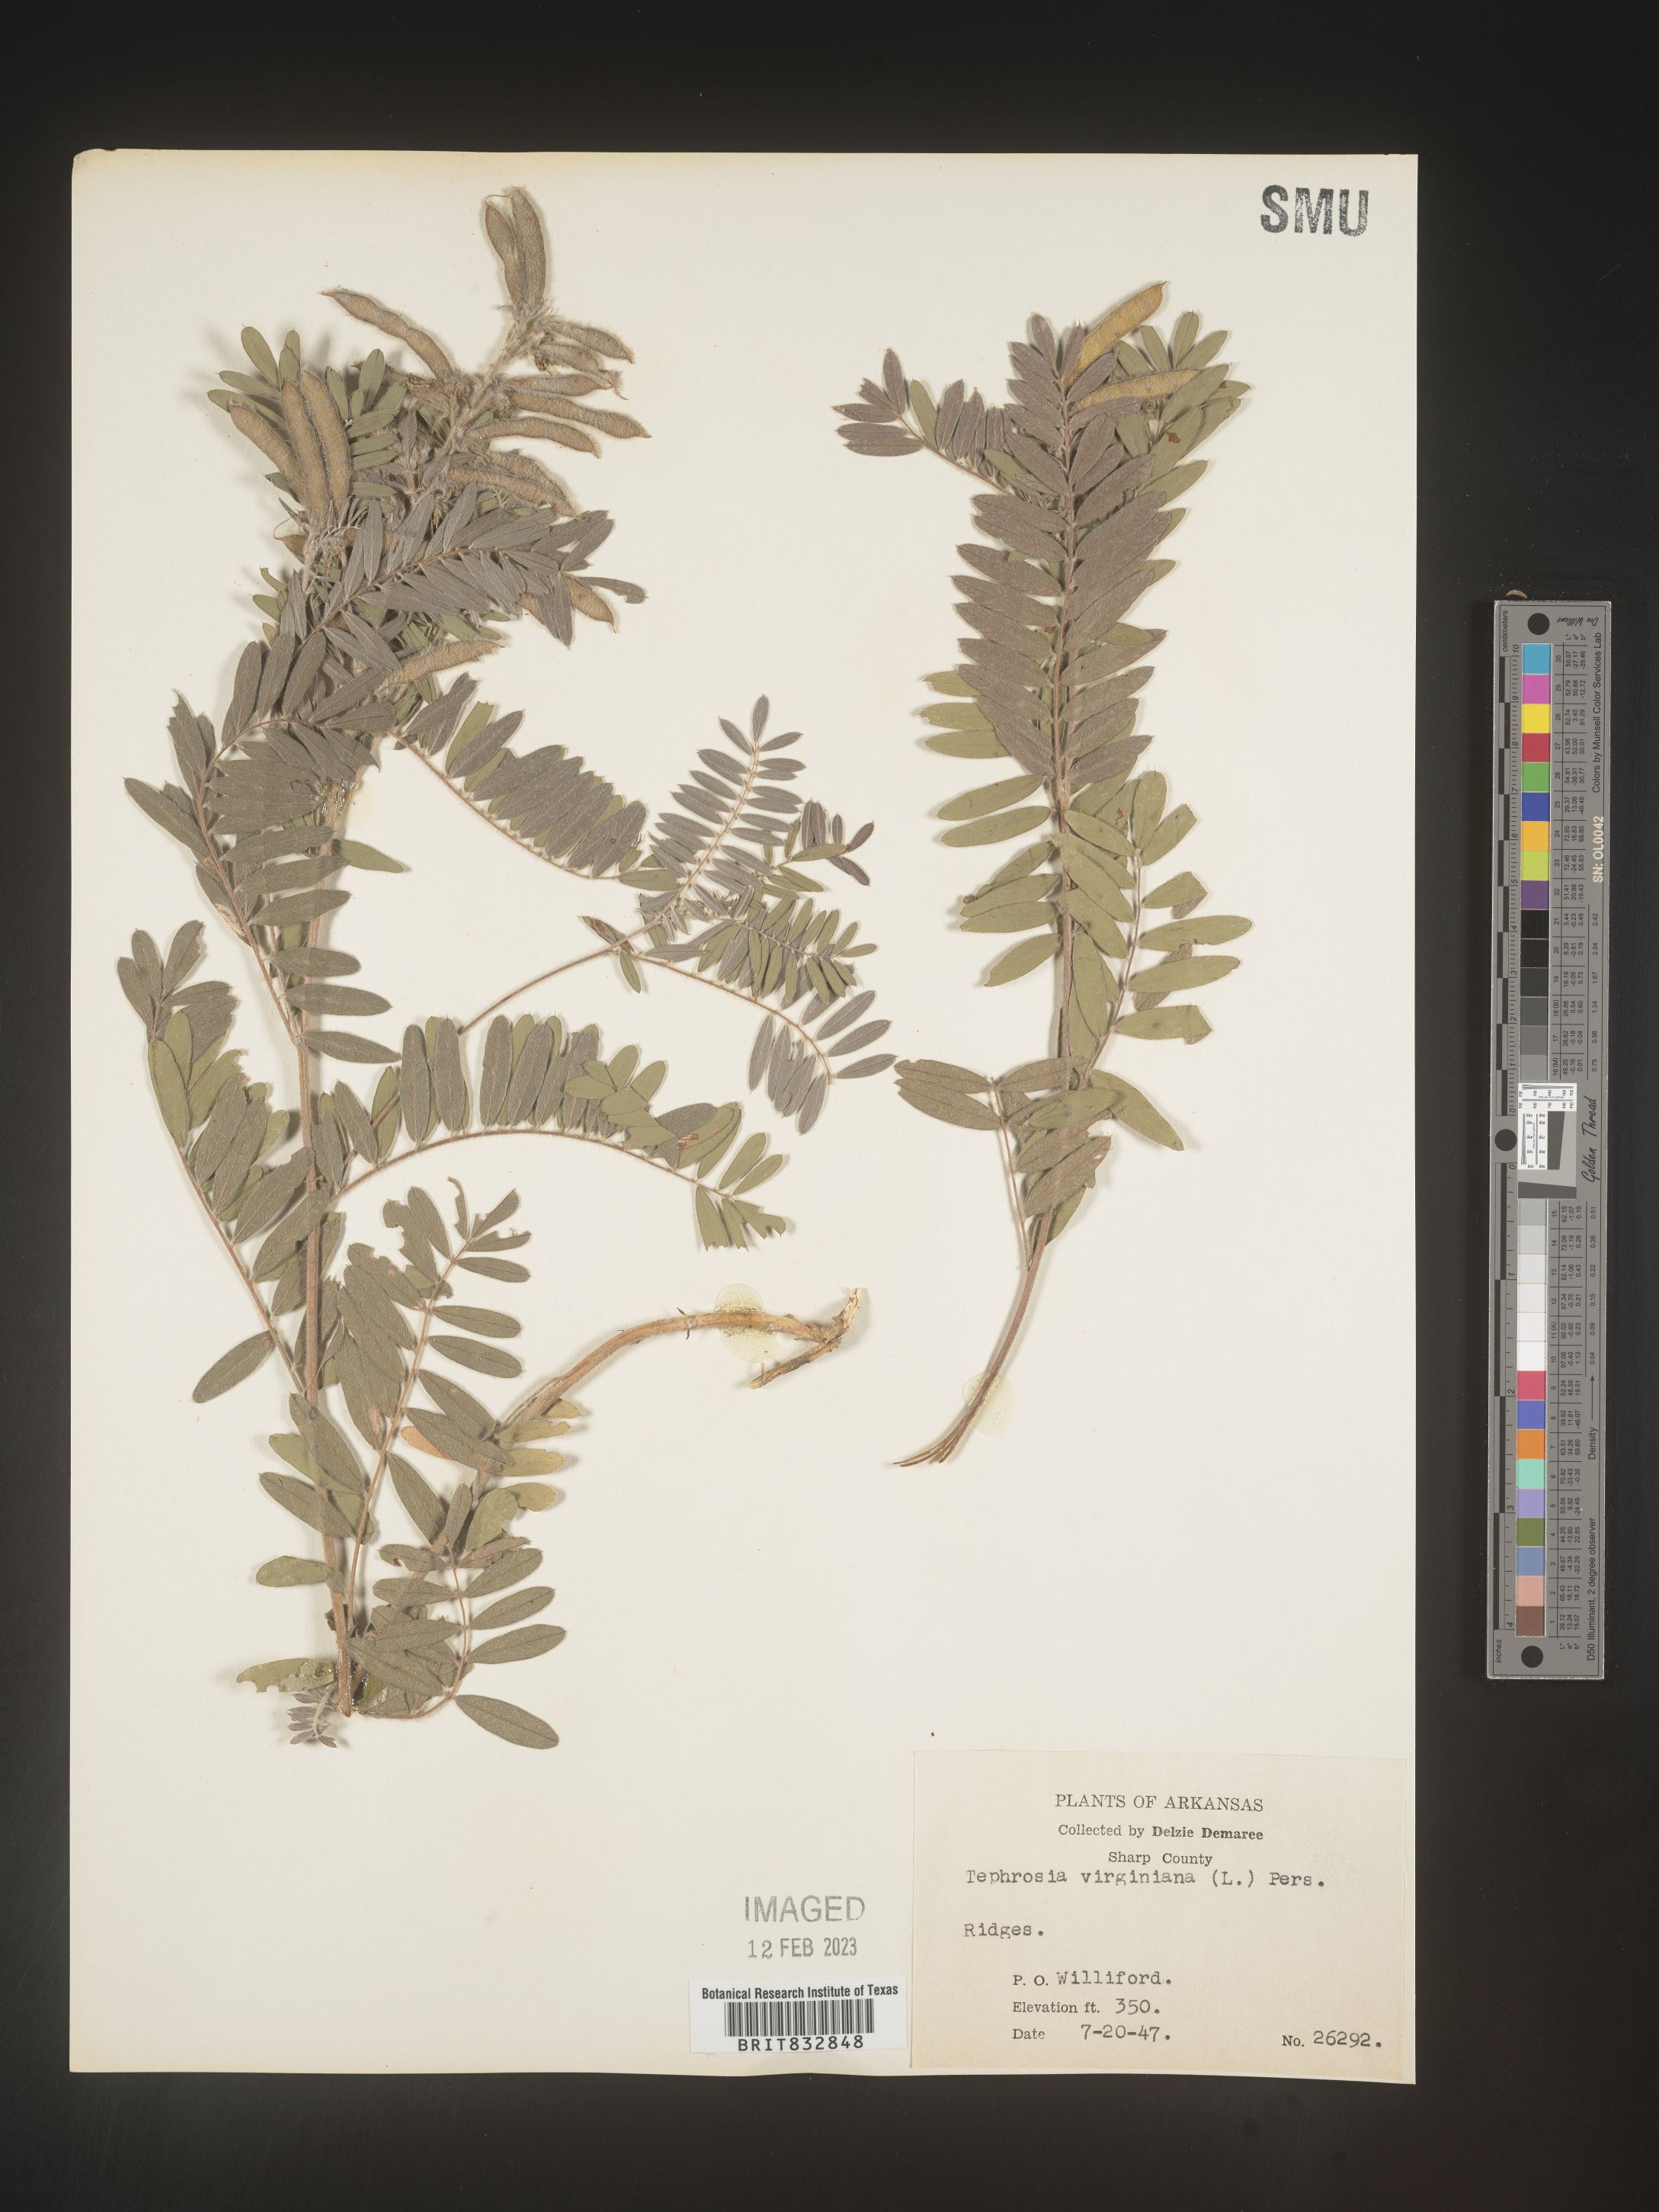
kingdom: Plantae
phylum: Tracheophyta
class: Magnoliopsida
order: Fabales
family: Fabaceae
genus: Tephrosia
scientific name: Tephrosia virginiana
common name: Rabbit-pea
